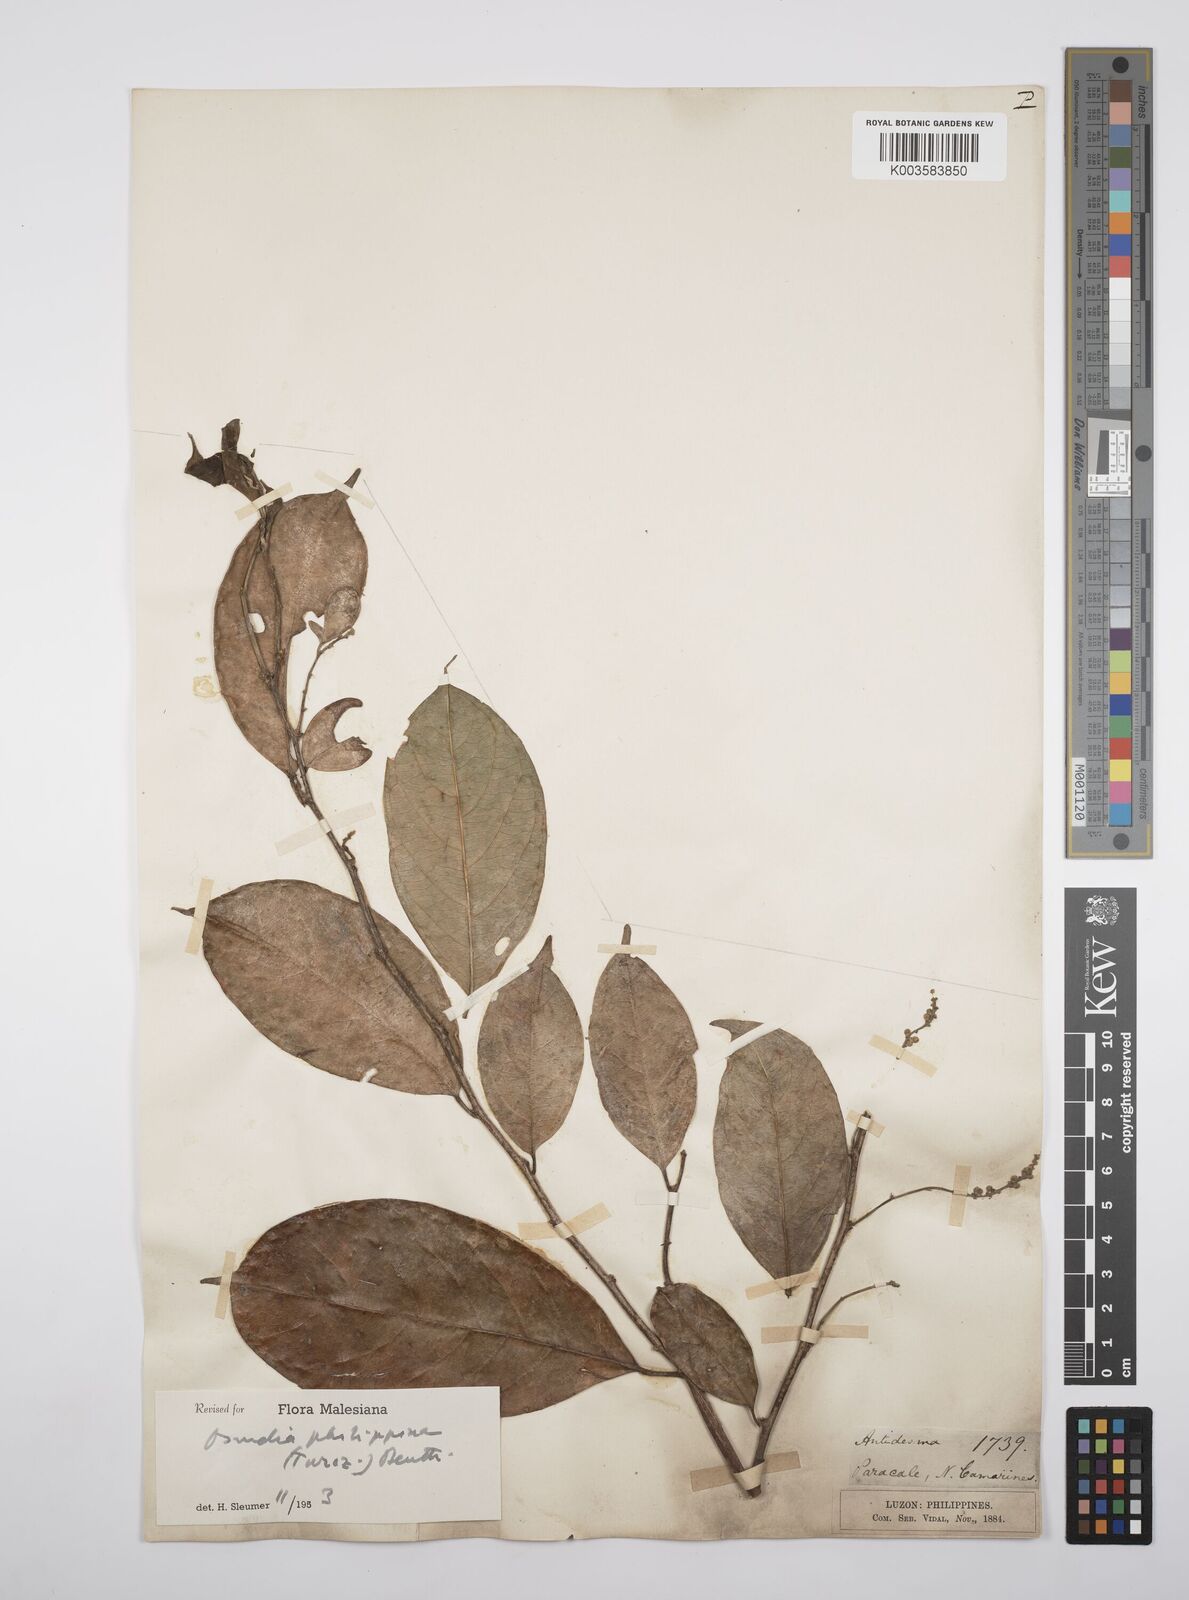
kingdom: Plantae
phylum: Tracheophyta
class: Magnoliopsida
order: Malpighiales
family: Salicaceae
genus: Osmelia
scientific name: Osmelia philippina
